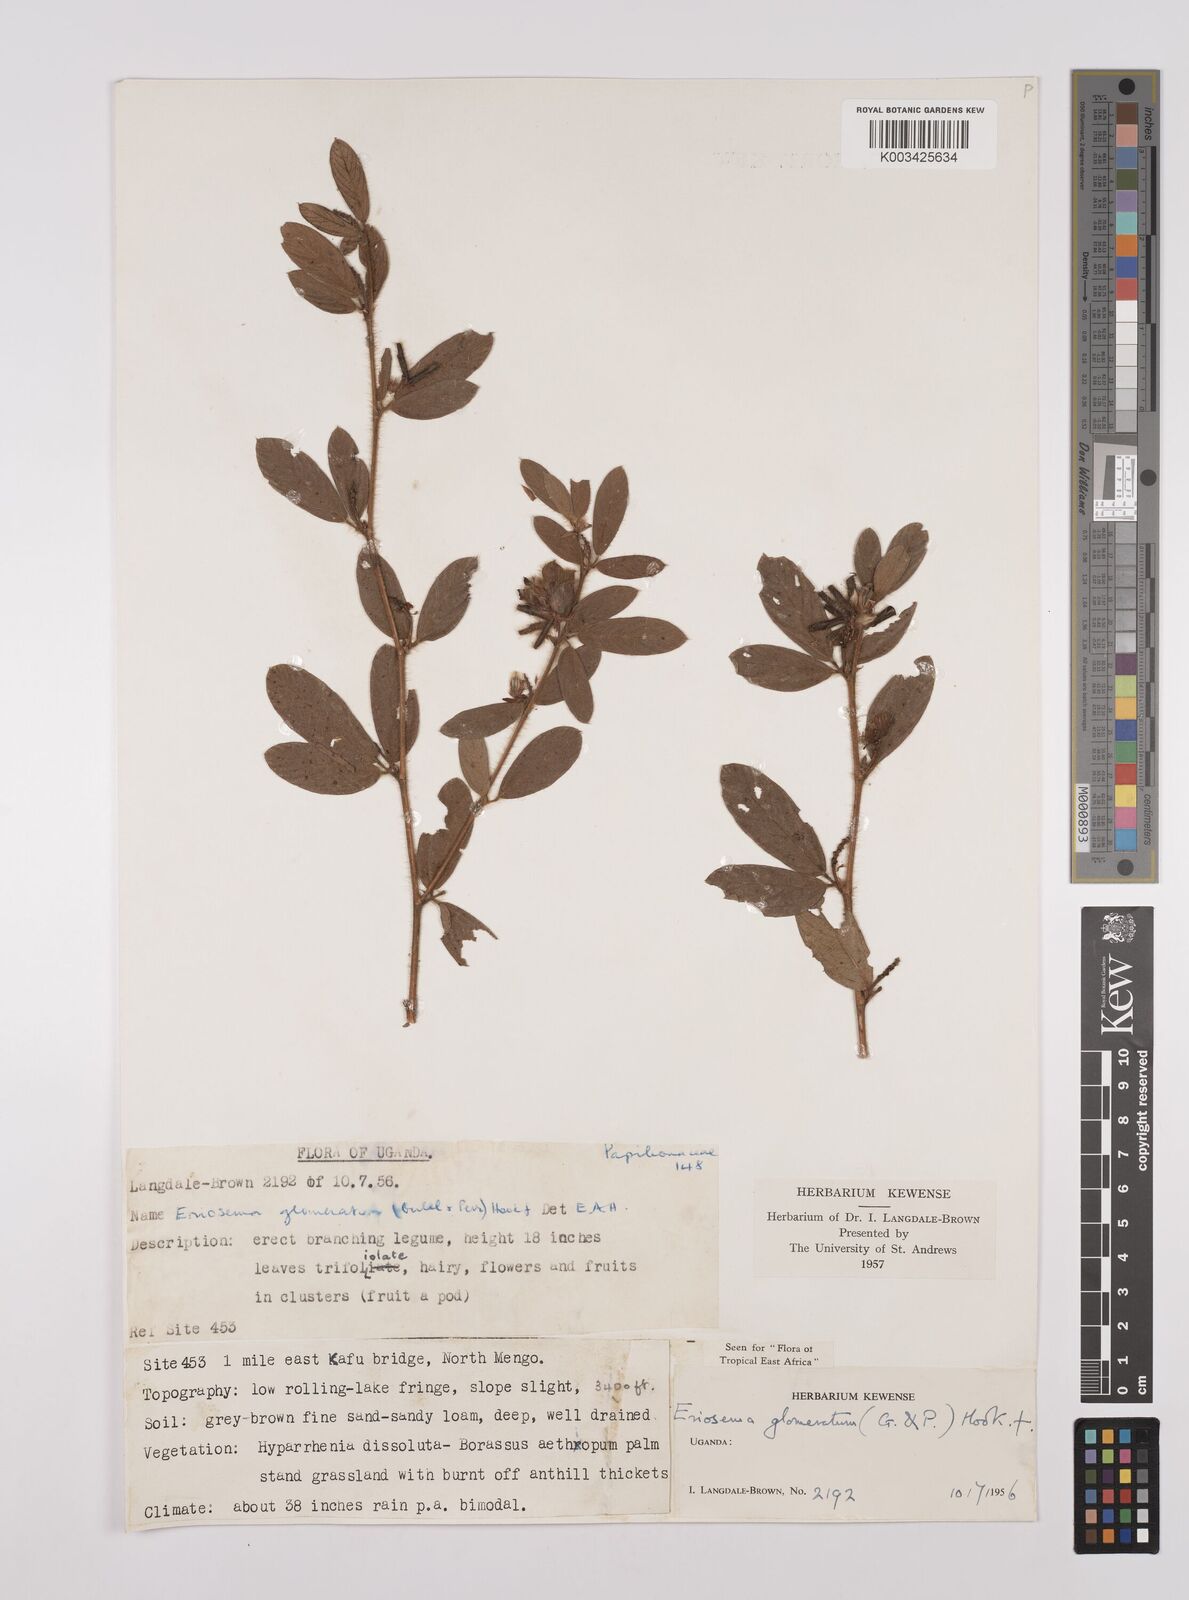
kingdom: Plantae
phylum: Tracheophyta
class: Magnoliopsida
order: Fabales
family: Fabaceae
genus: Eriosema
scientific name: Eriosema glomeratum
